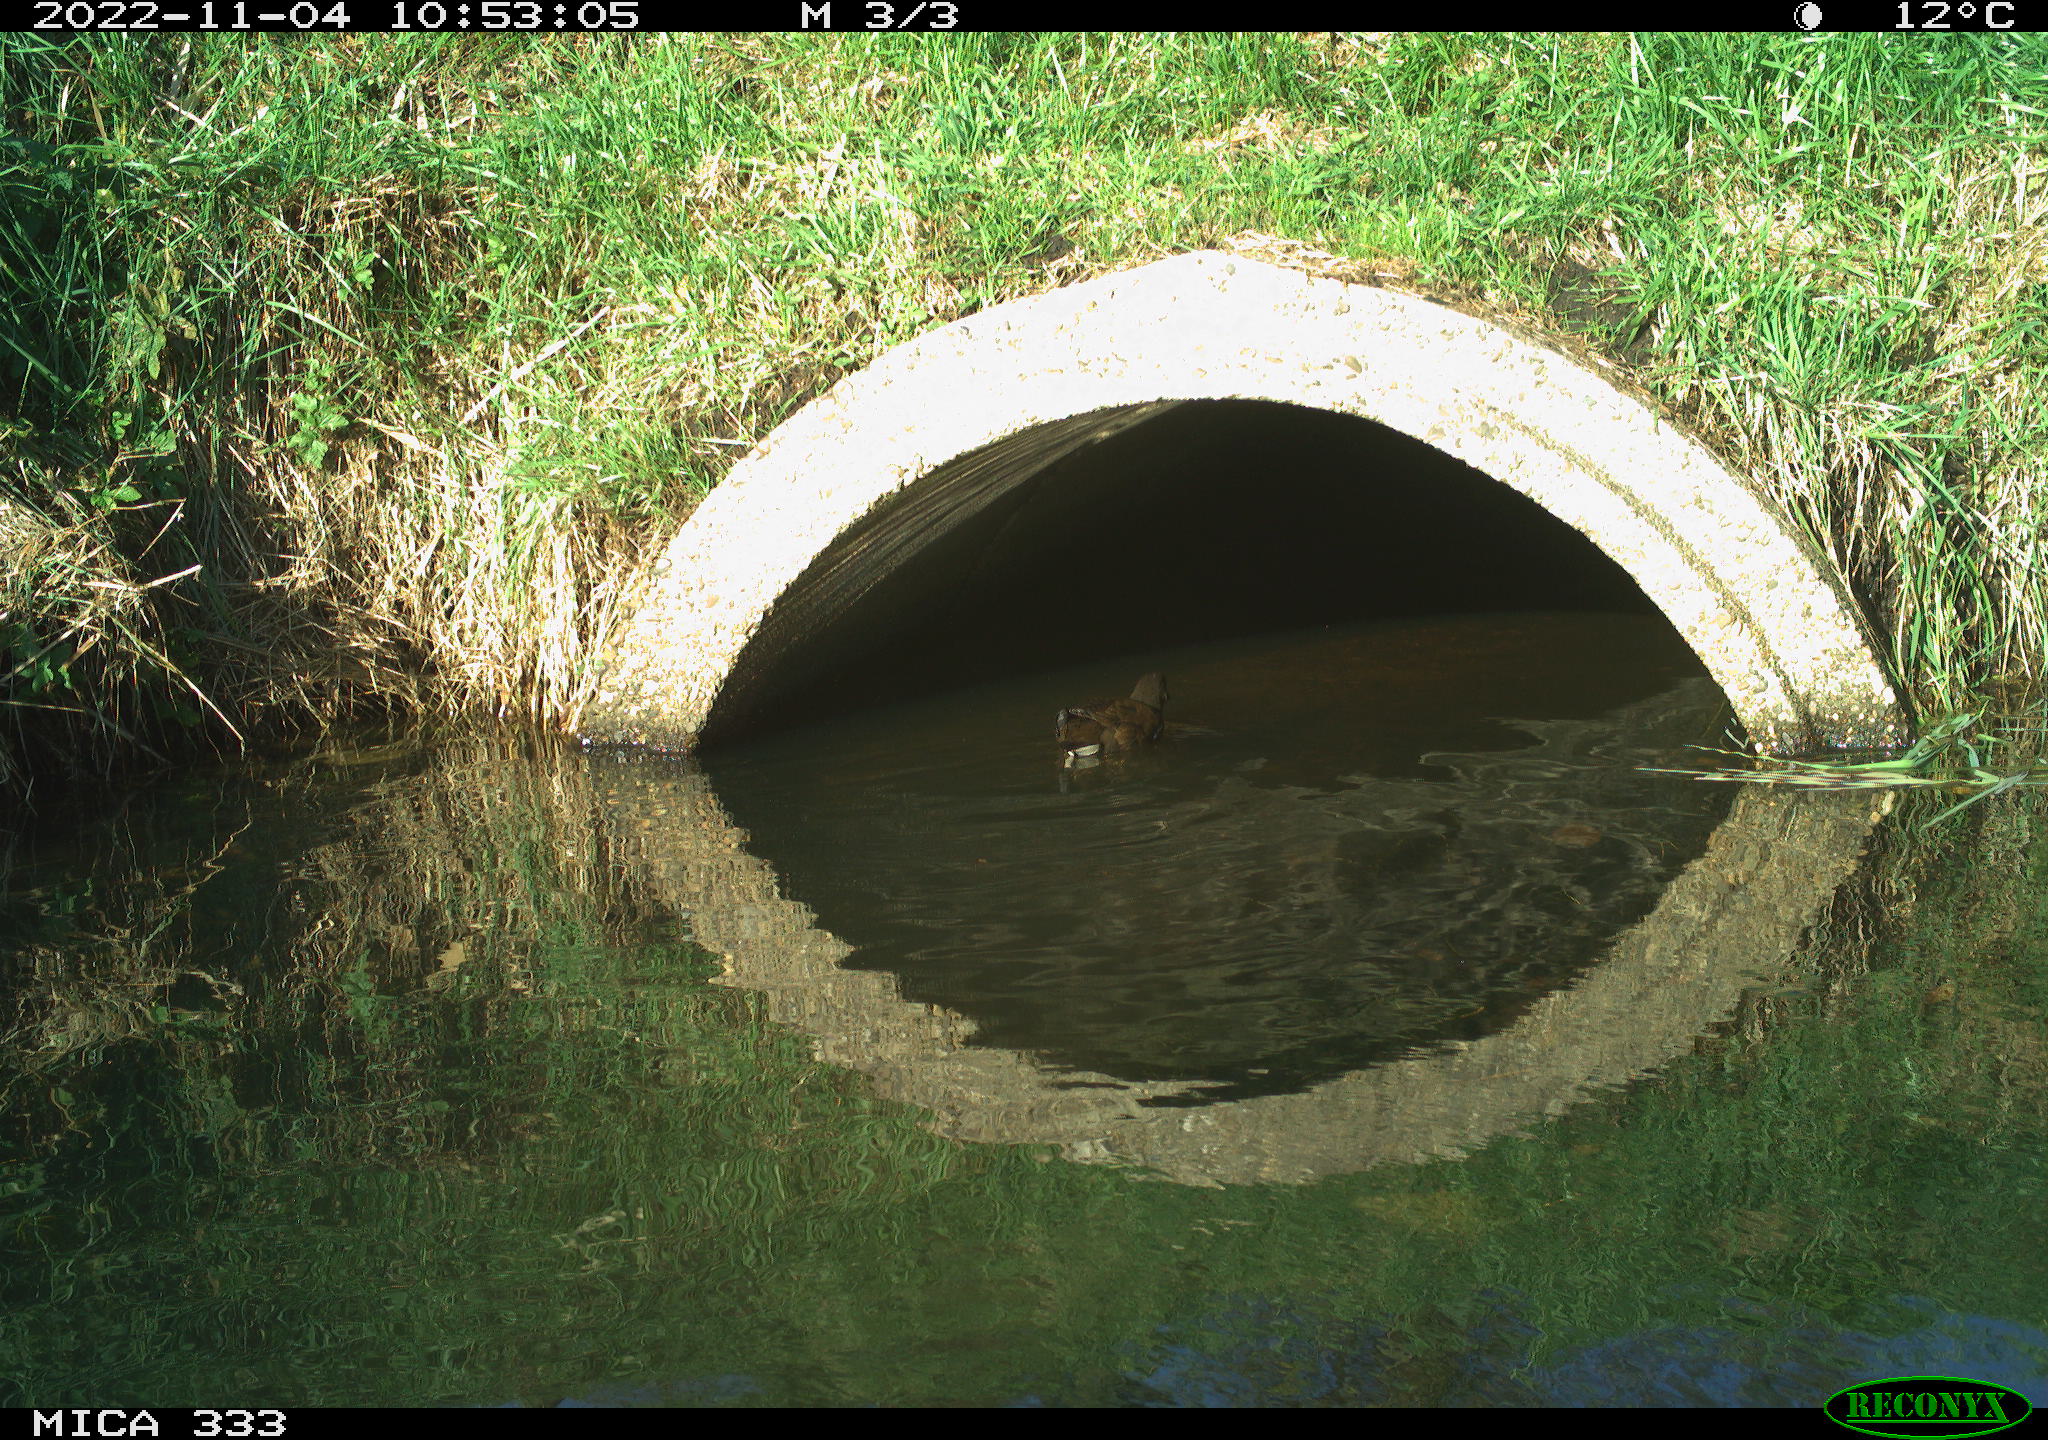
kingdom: Animalia
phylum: Chordata
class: Aves
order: Gruiformes
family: Rallidae
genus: Gallinula
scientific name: Gallinula chloropus
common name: Common moorhen
